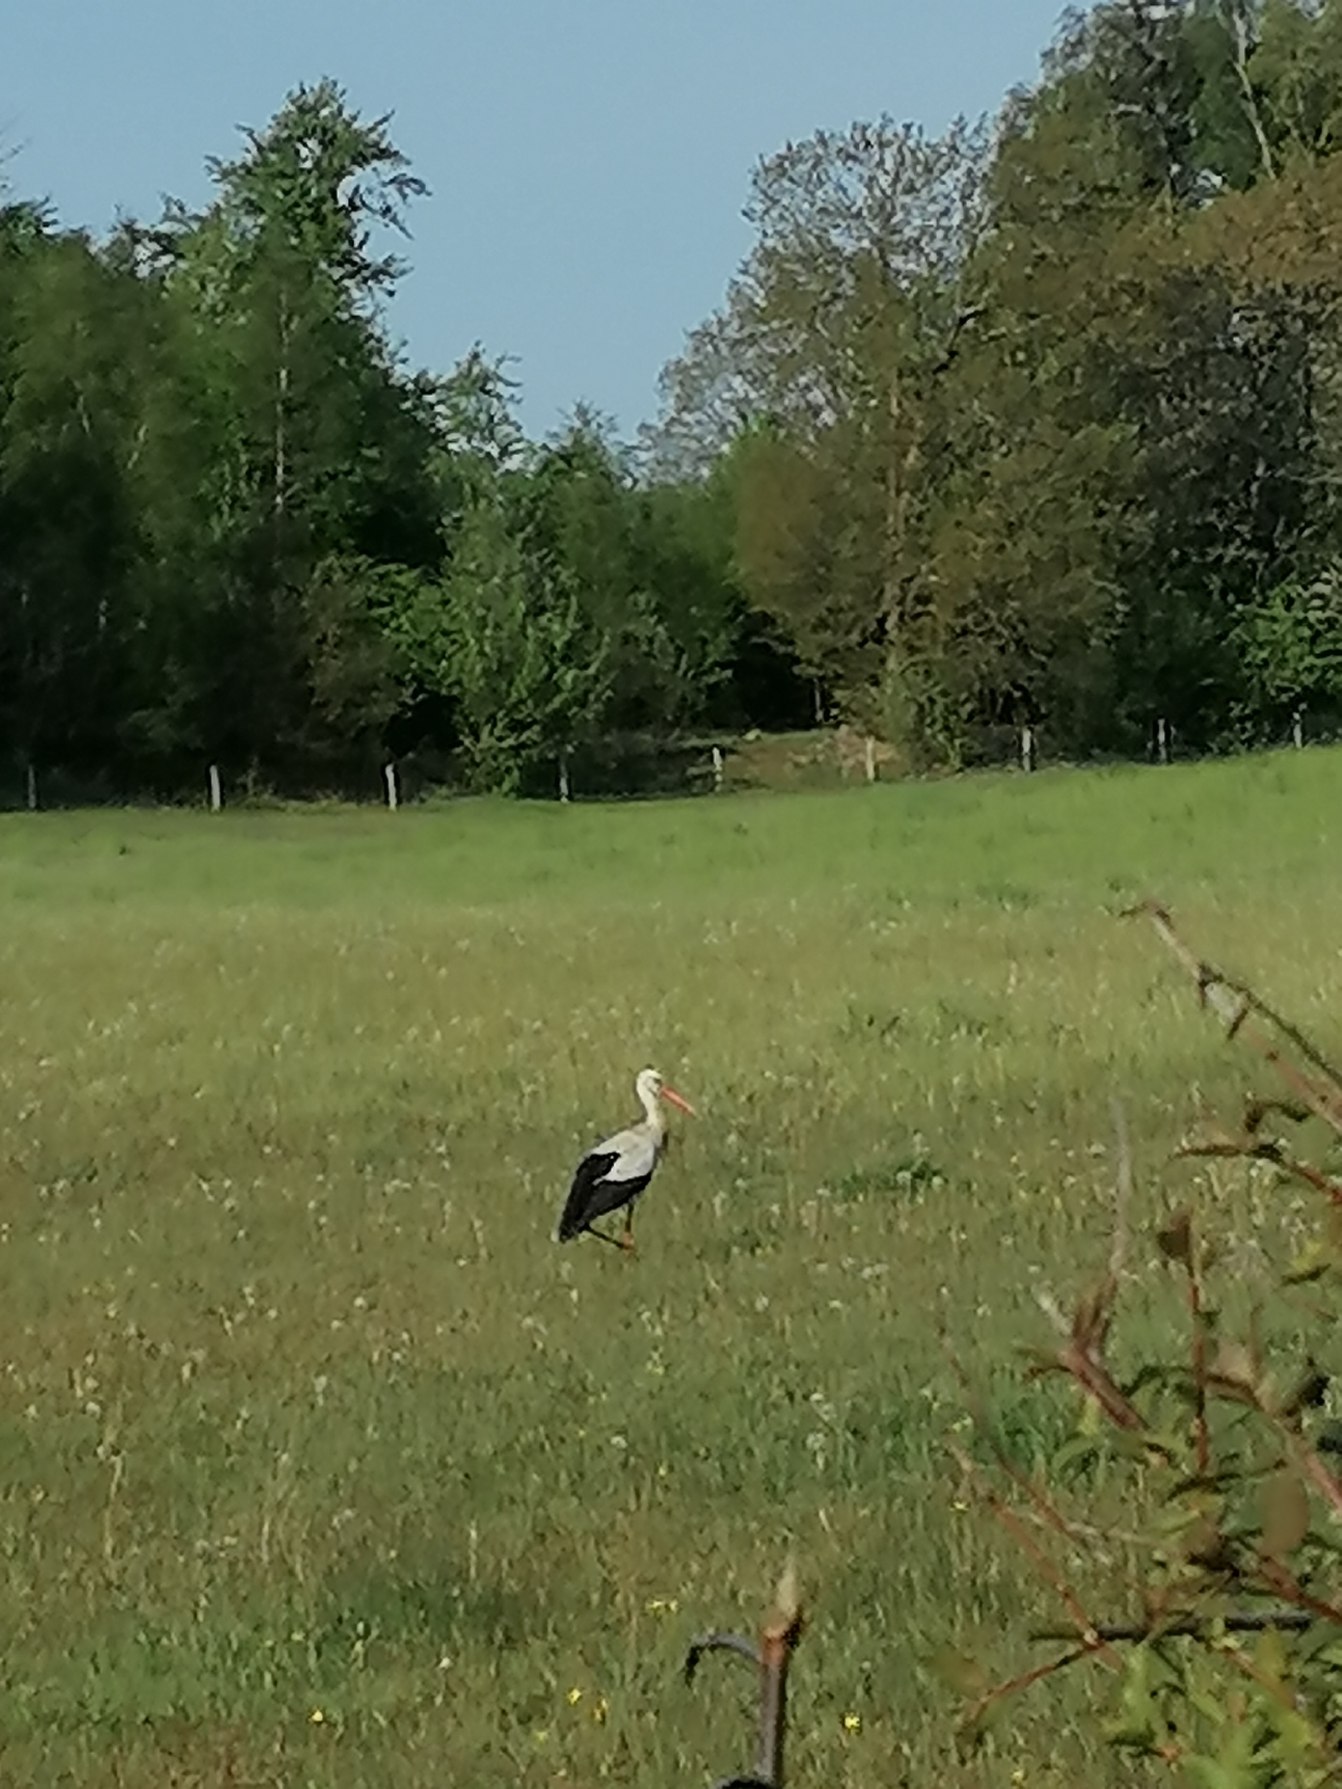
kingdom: Animalia
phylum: Chordata
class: Aves
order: Ciconiiformes
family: Ciconiidae
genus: Ciconia
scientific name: Ciconia ciconia
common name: Hvid stork
